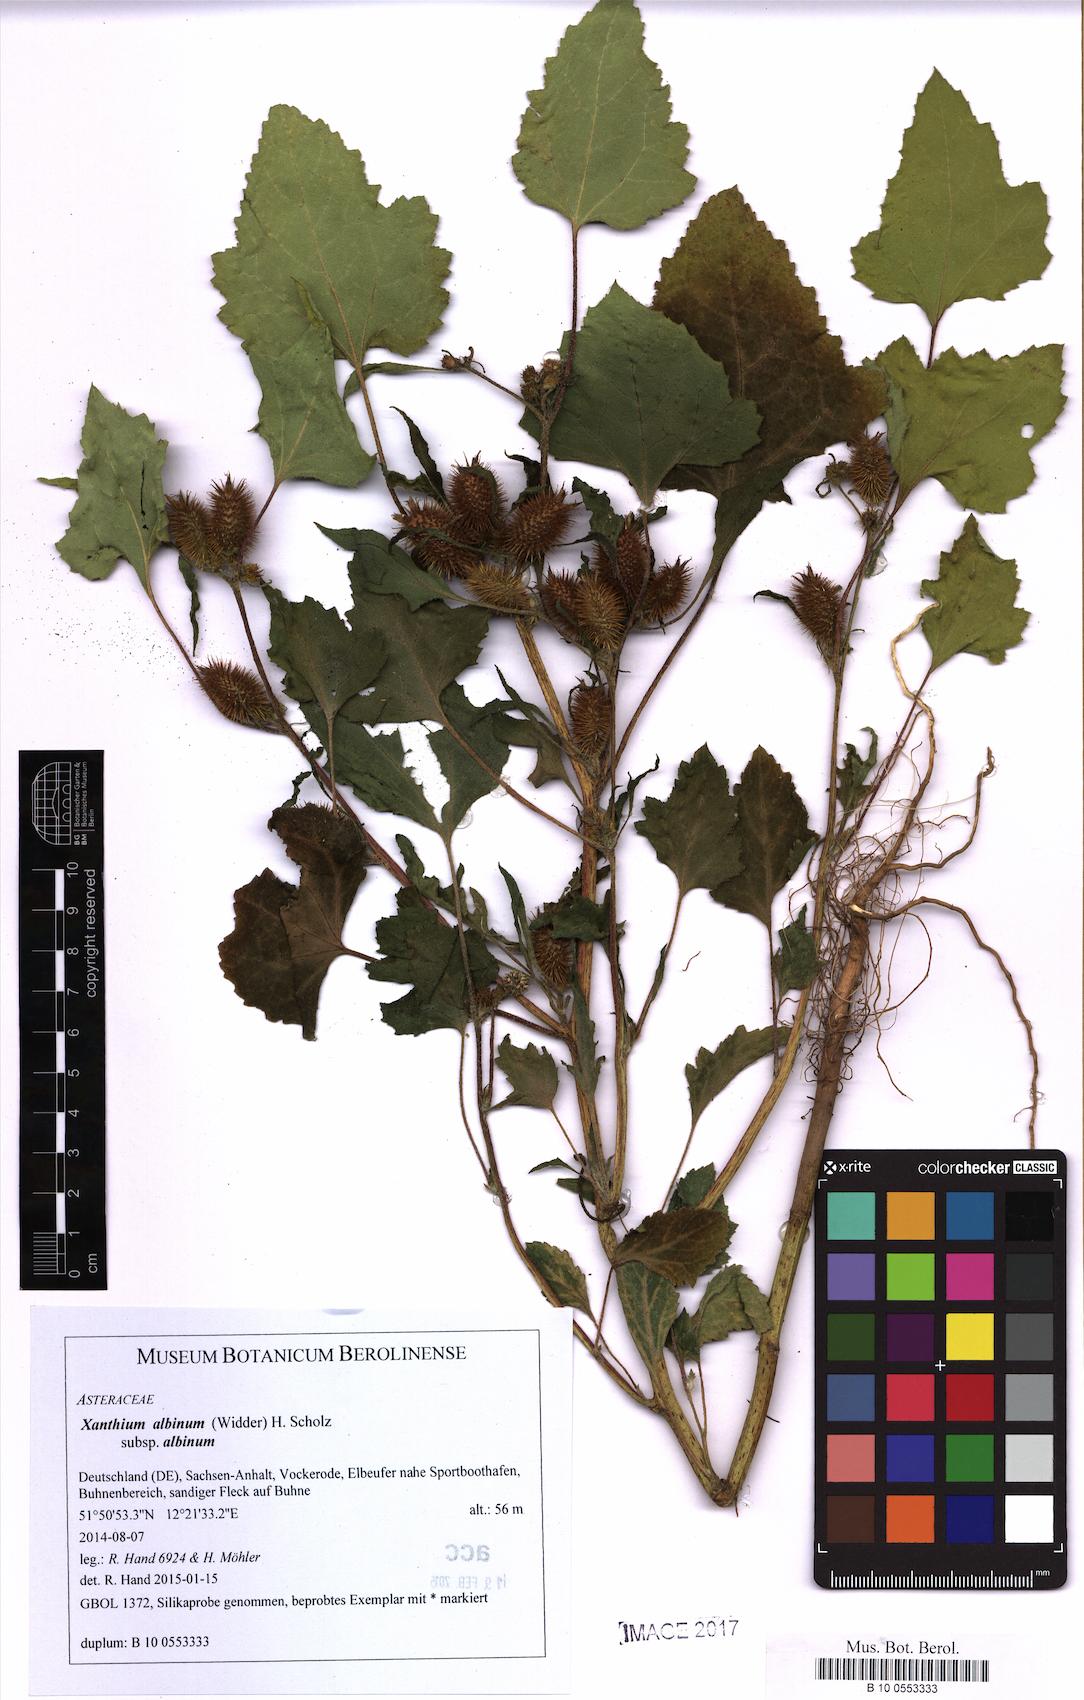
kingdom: Plantae
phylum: Tracheophyta
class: Magnoliopsida
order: Asterales
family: Asteraceae
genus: Xanthium
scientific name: Xanthium orientale
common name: Californian burr
